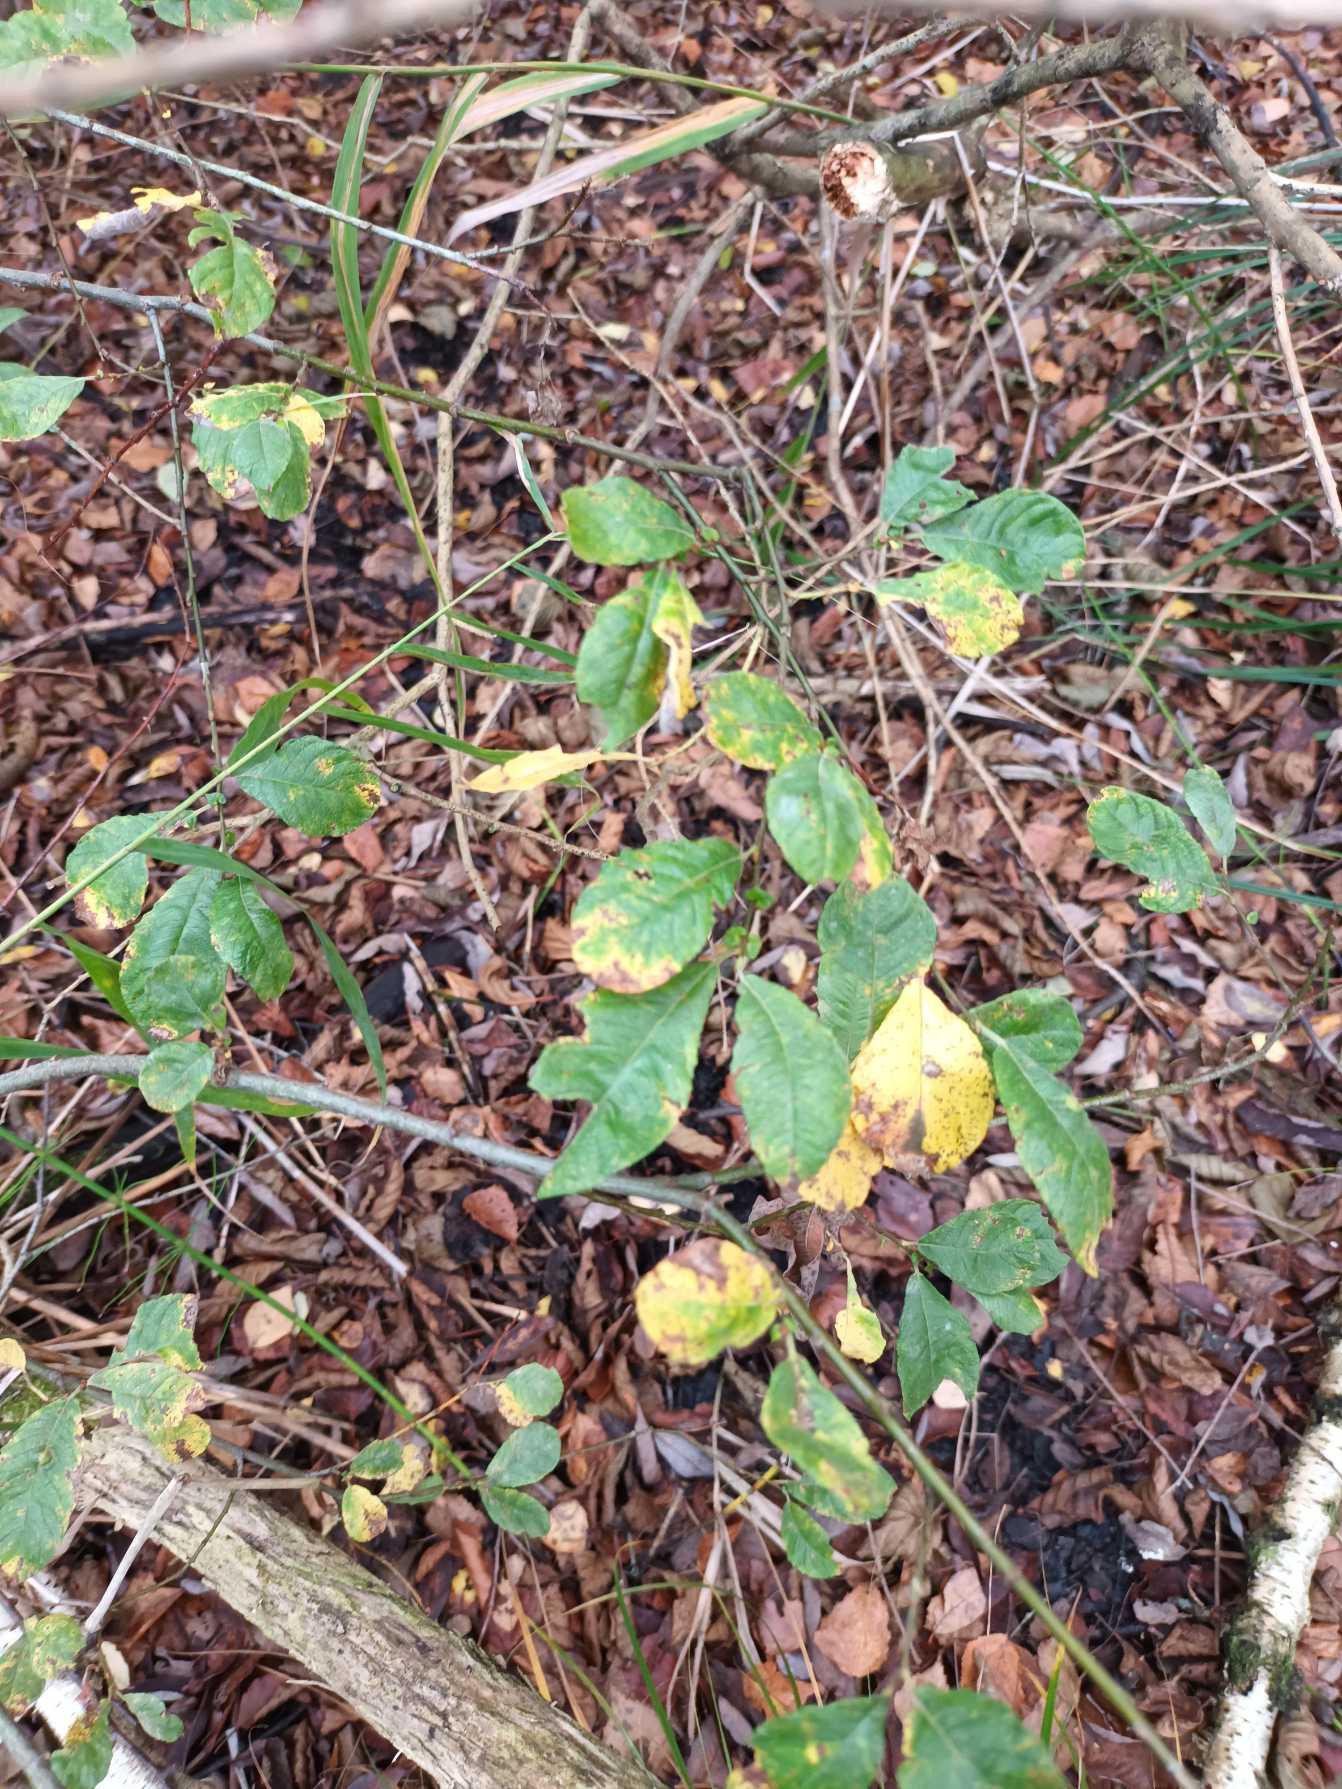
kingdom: Plantae
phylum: Tracheophyta
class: Magnoliopsida
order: Malpighiales
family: Salicaceae
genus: Salix
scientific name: Salix aurita
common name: Øret pil
